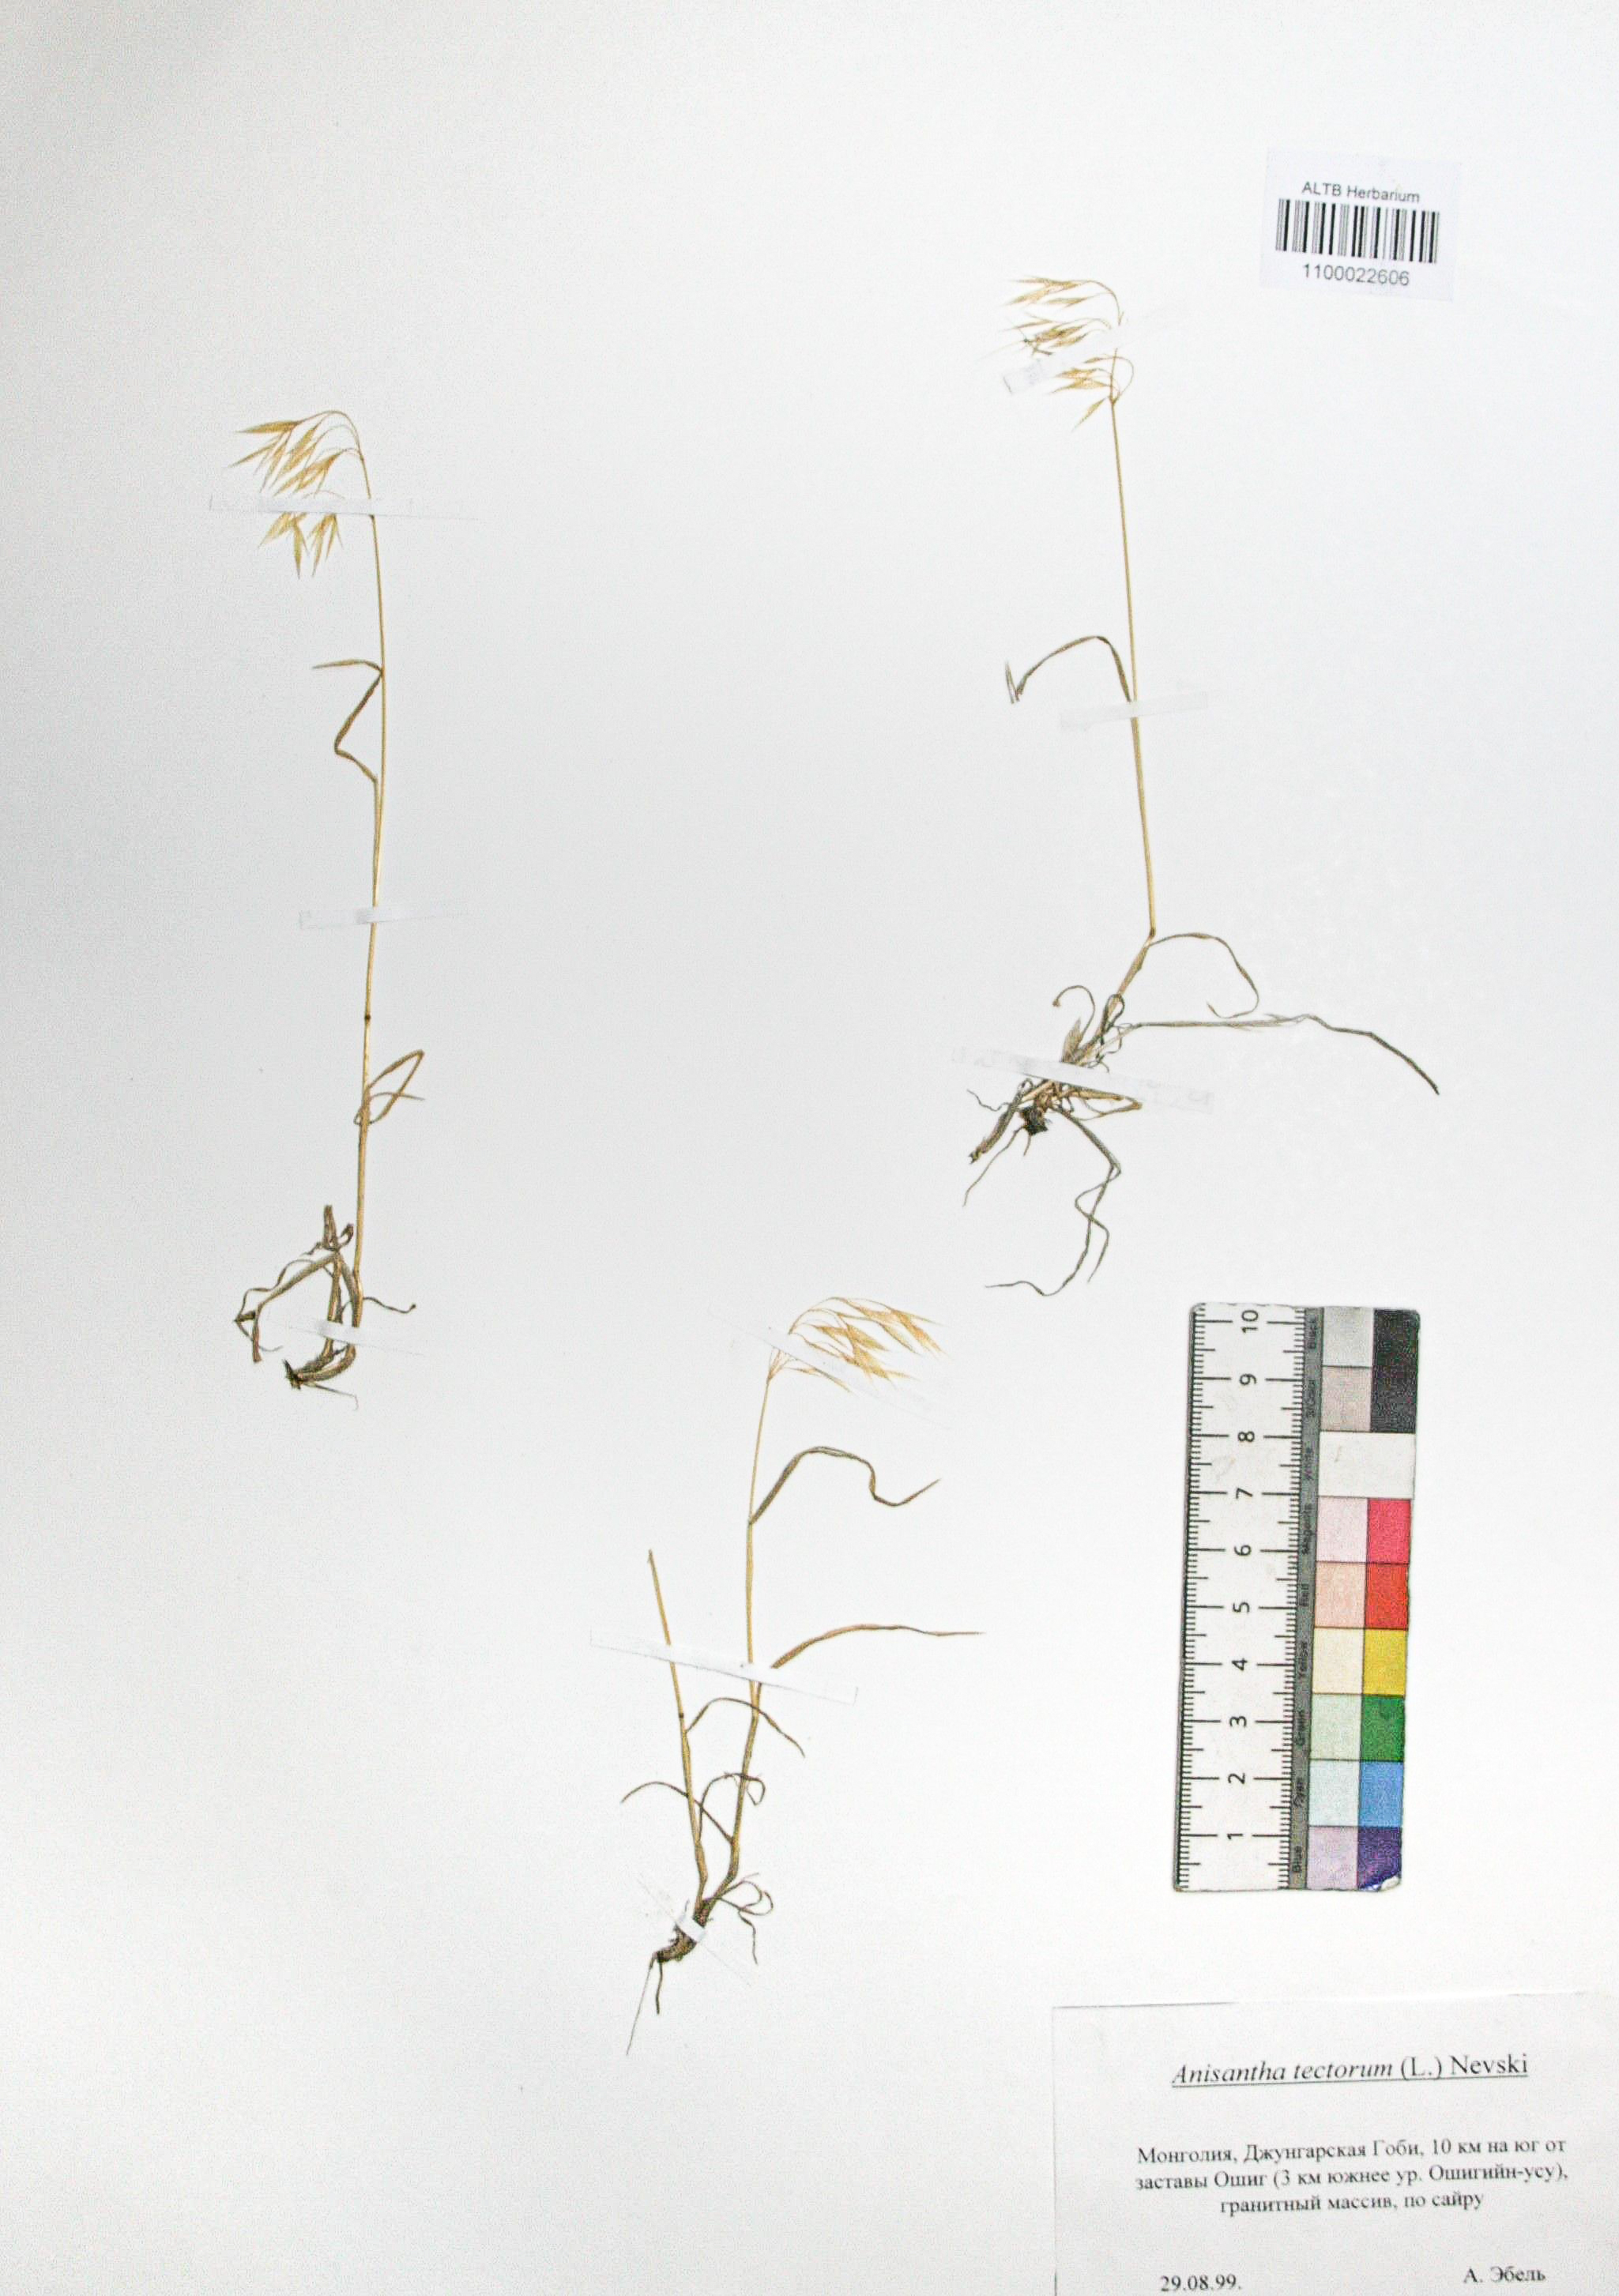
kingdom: Plantae
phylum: Tracheophyta
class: Liliopsida
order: Poales
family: Poaceae
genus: Bromus
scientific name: Bromus tectorum
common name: Cheatgrass
